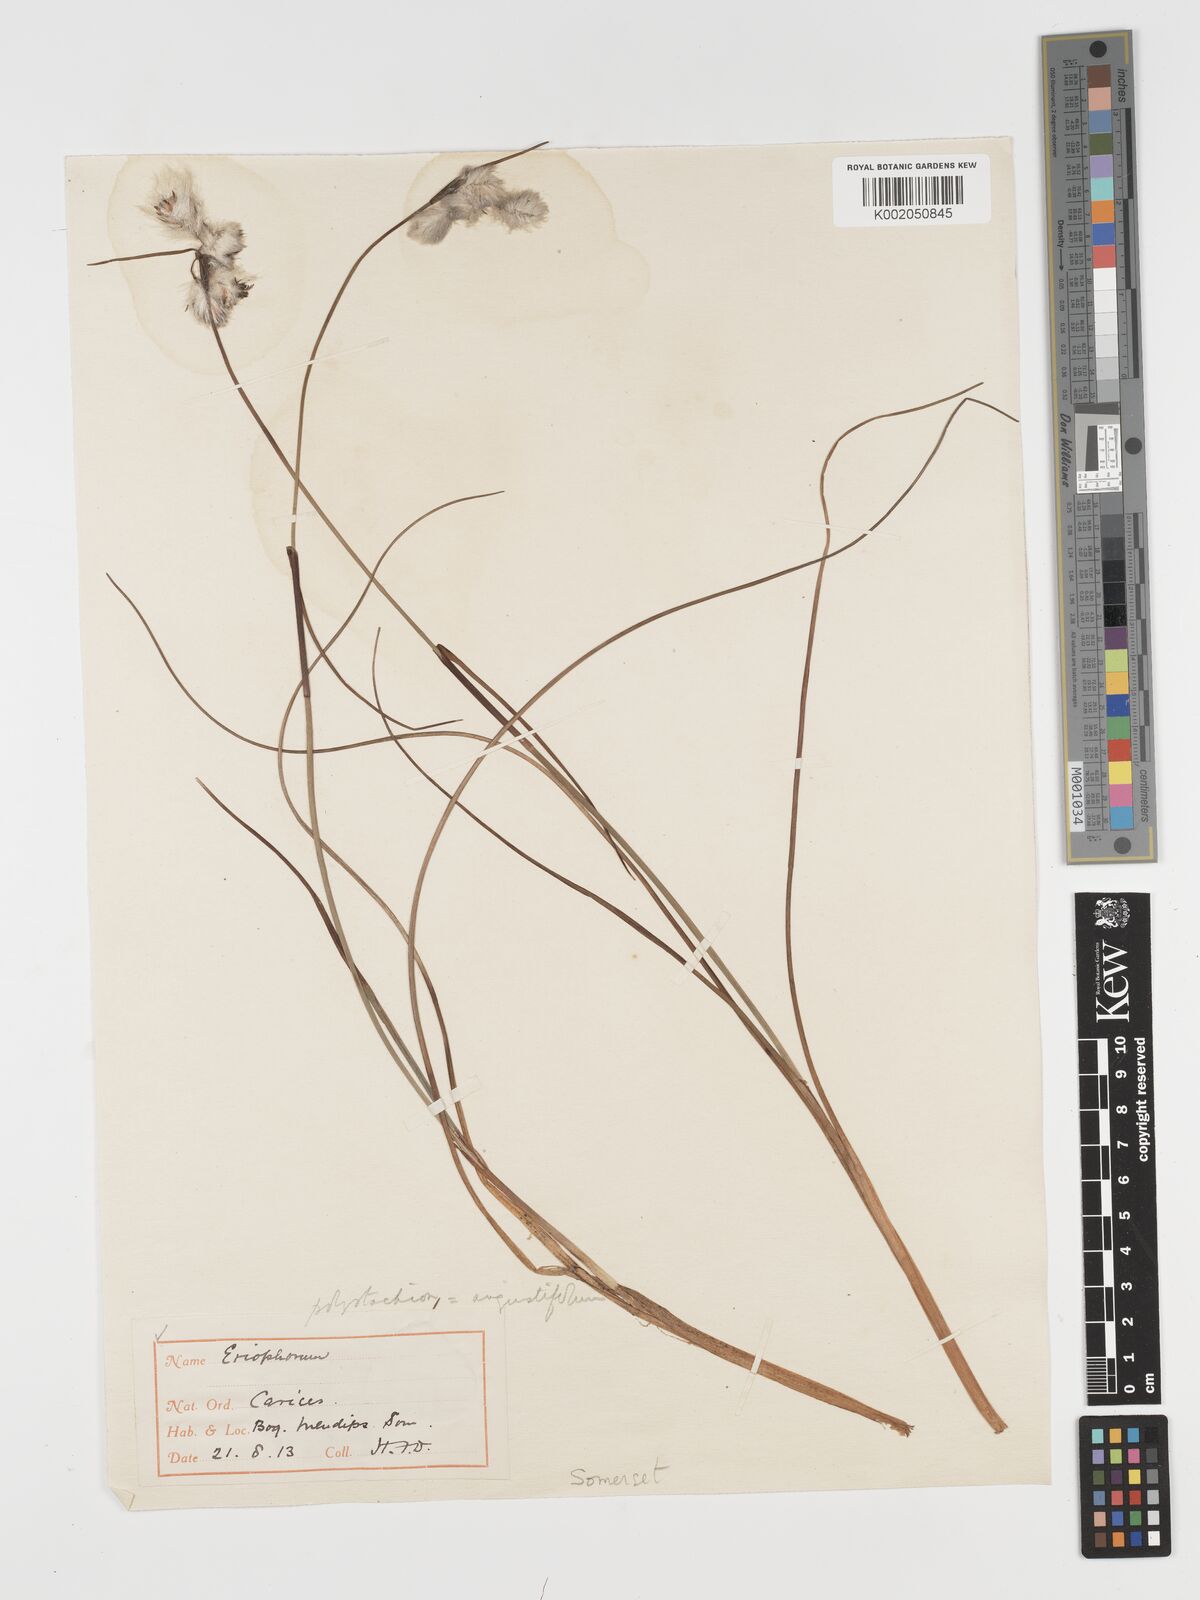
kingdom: Plantae
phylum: Tracheophyta
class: Liliopsida
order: Poales
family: Cyperaceae
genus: Eriophorum
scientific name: Eriophorum angustifolium
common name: Common cottongrass
